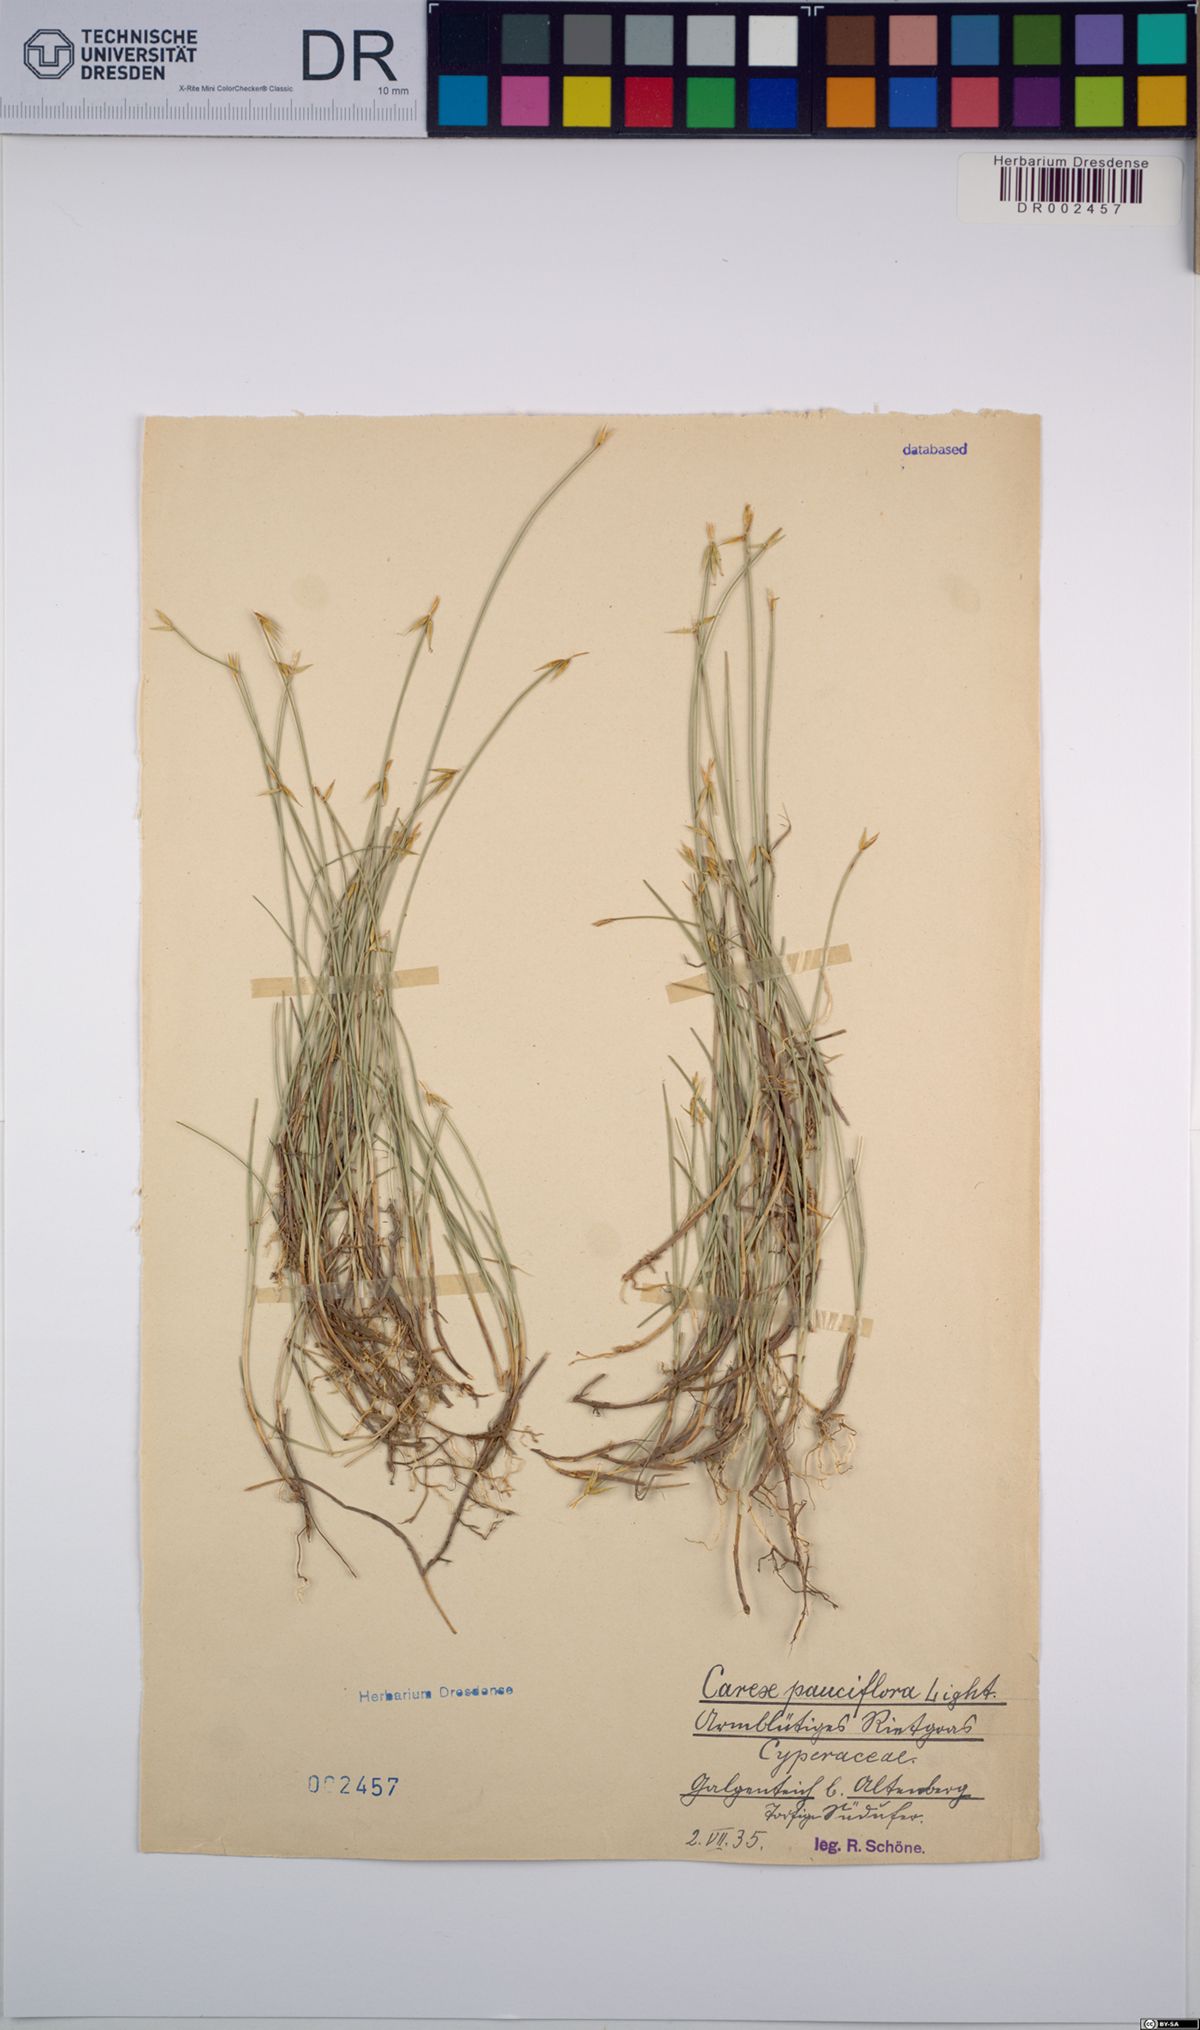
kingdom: Plantae
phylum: Tracheophyta
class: Liliopsida
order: Poales
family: Cyperaceae
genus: Carex
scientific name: Carex pauciflora
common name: Few-flowered sedge
